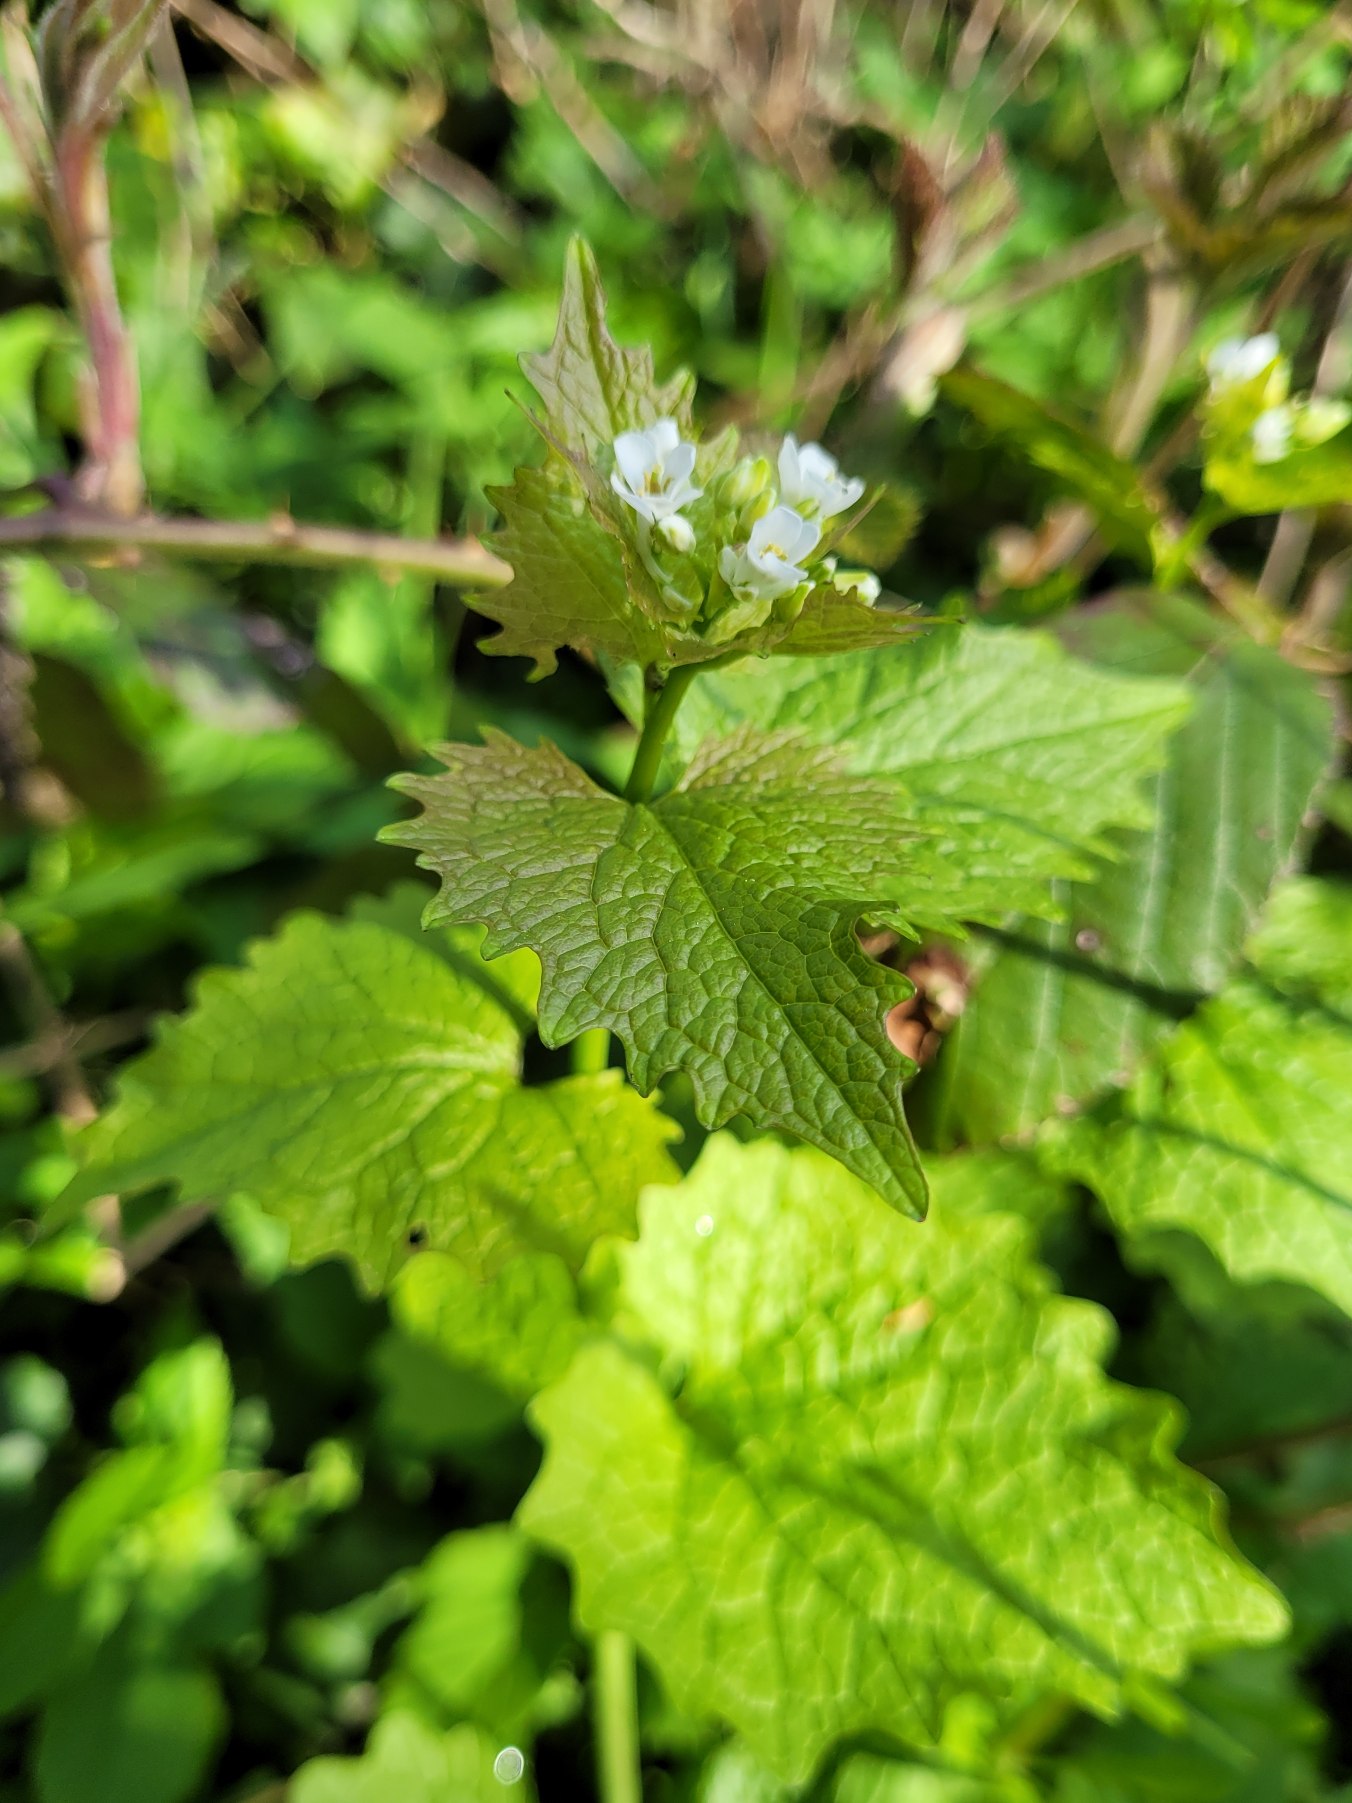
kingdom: Plantae
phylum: Tracheophyta
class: Magnoliopsida
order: Brassicales
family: Brassicaceae
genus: Alliaria
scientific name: Alliaria petiolata
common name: Løgkarse
